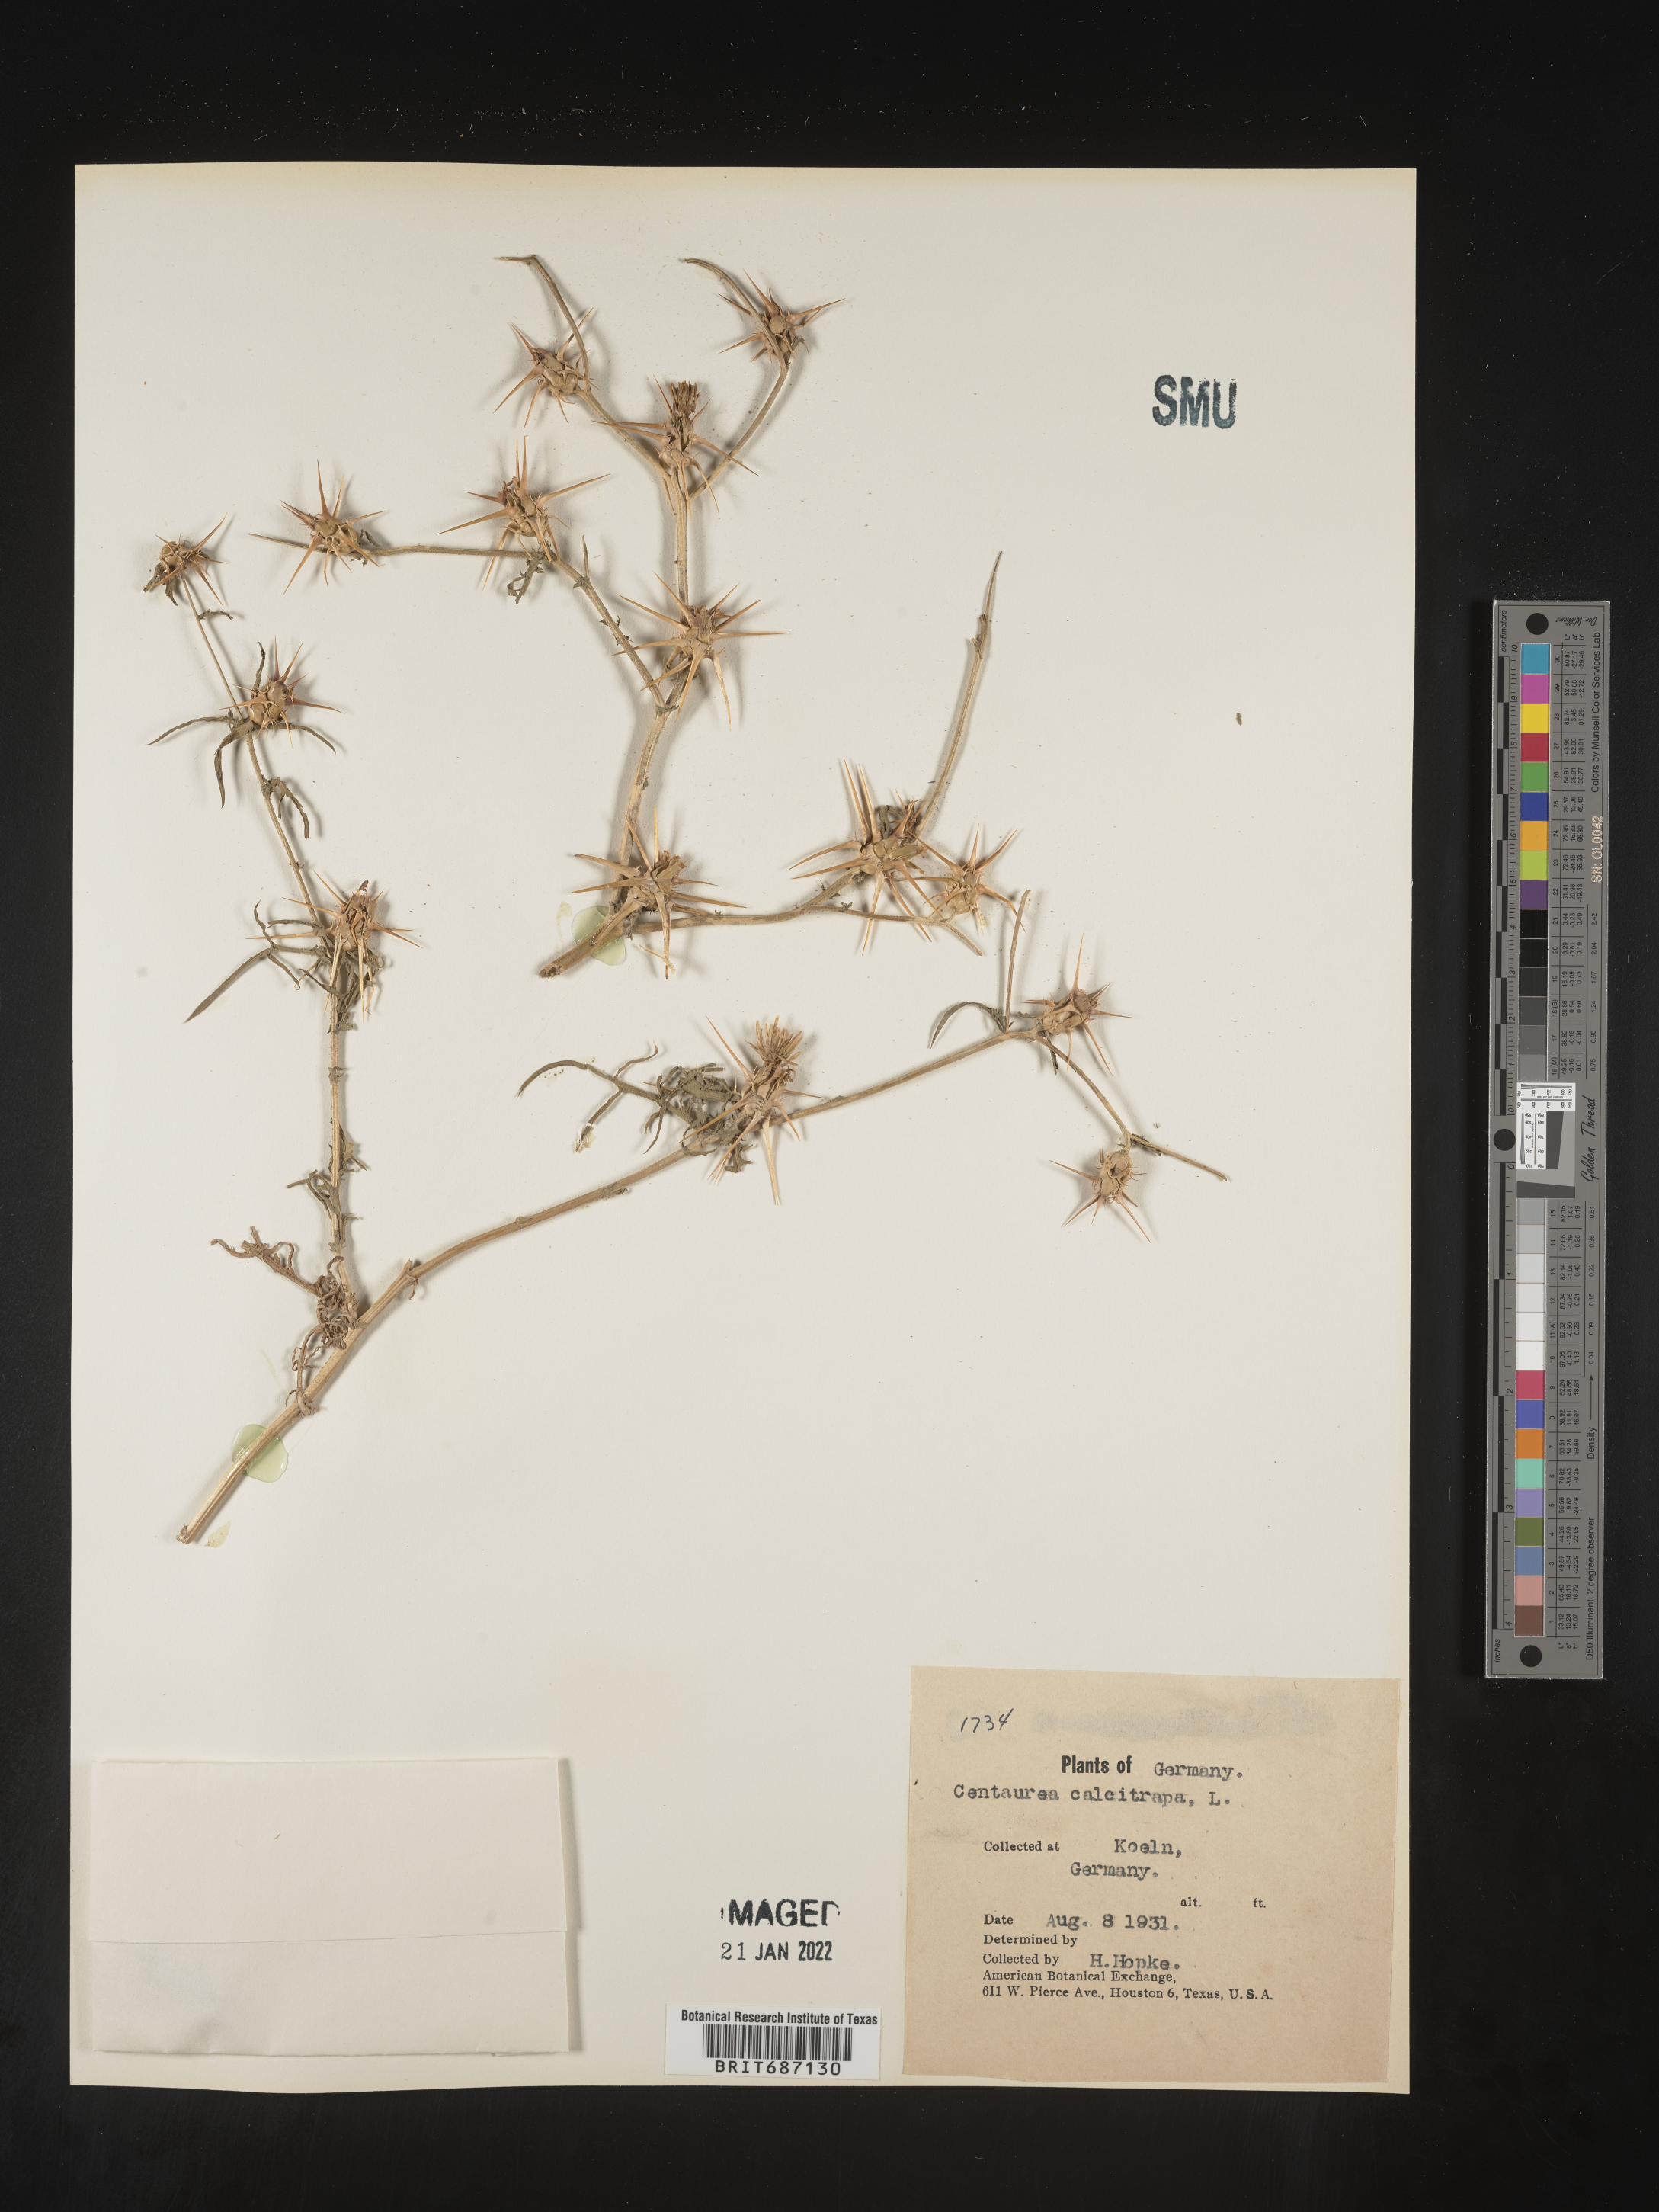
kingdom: Plantae
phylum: Tracheophyta
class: Magnoliopsida
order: Asterales
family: Asteraceae
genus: Centaurea
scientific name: Centaurea
